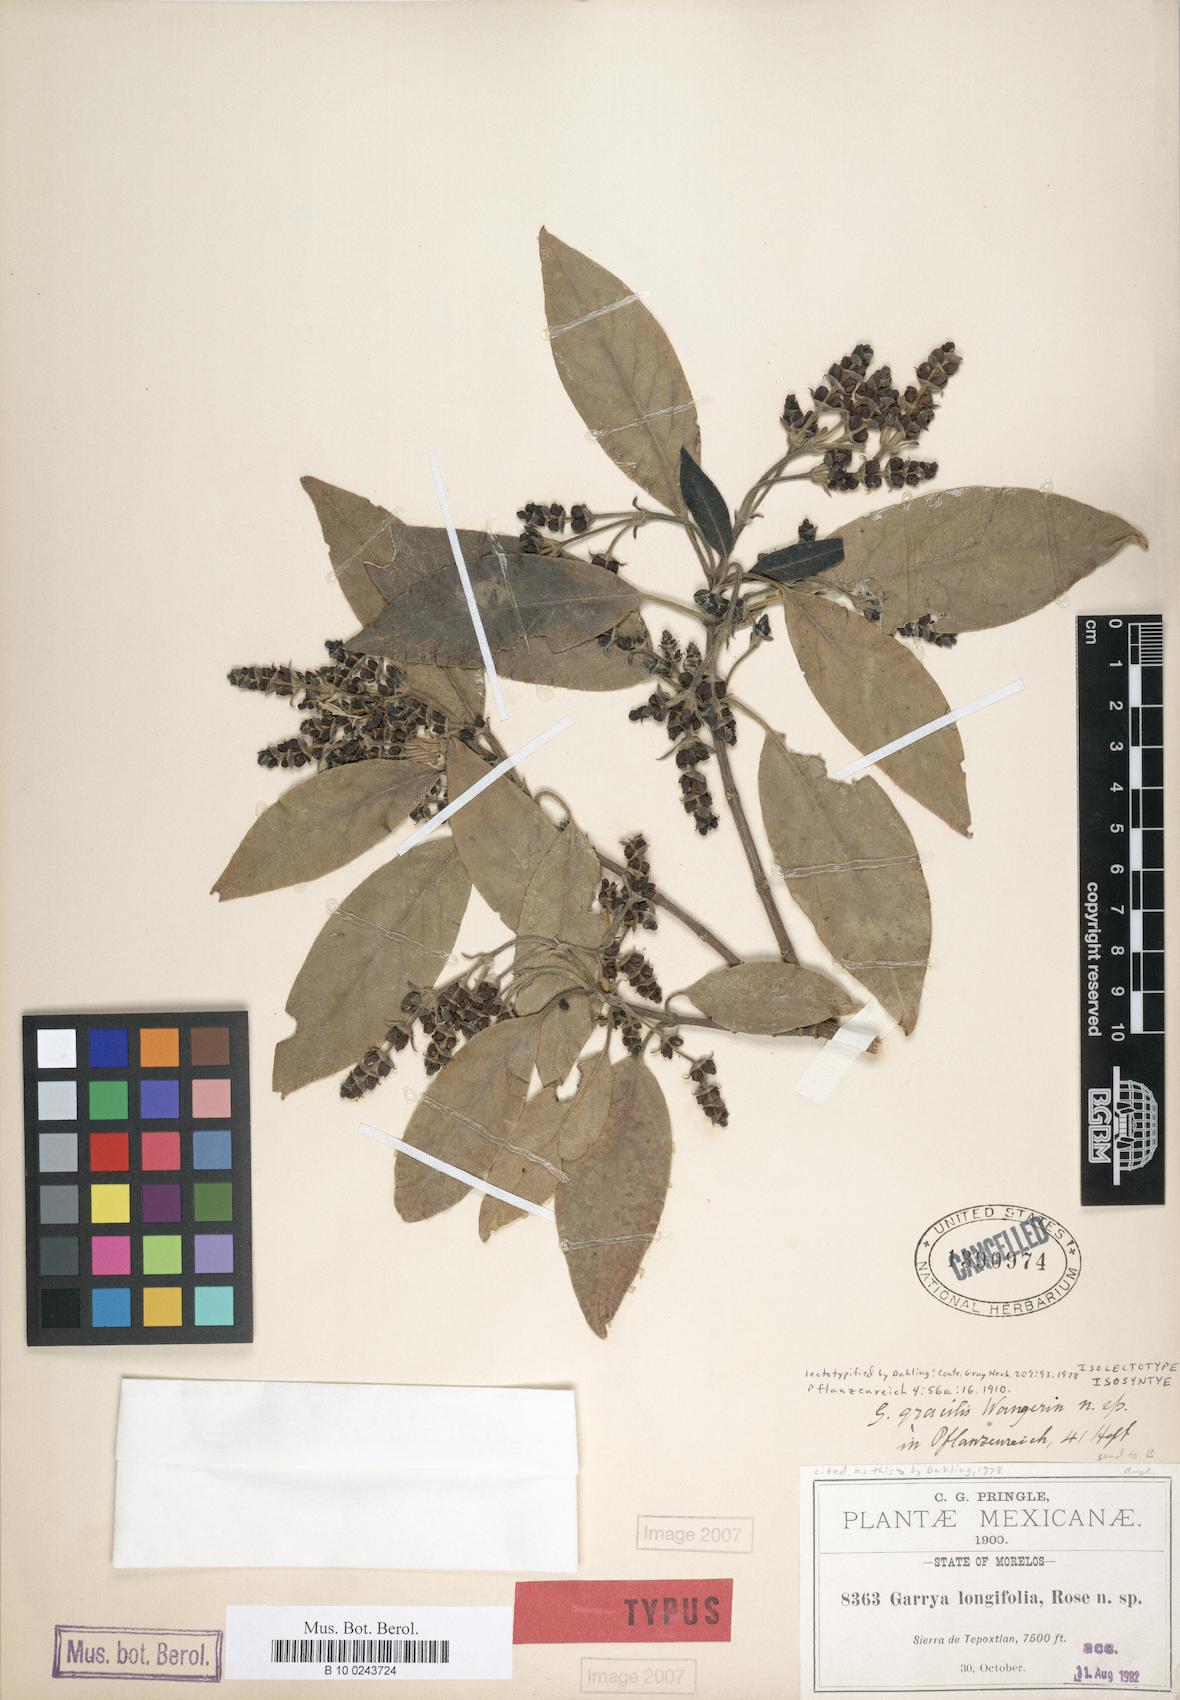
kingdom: Plantae
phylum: Tracheophyta
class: Magnoliopsida
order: Garryales
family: Garryaceae
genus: Garrya
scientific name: Garrya longifolia
